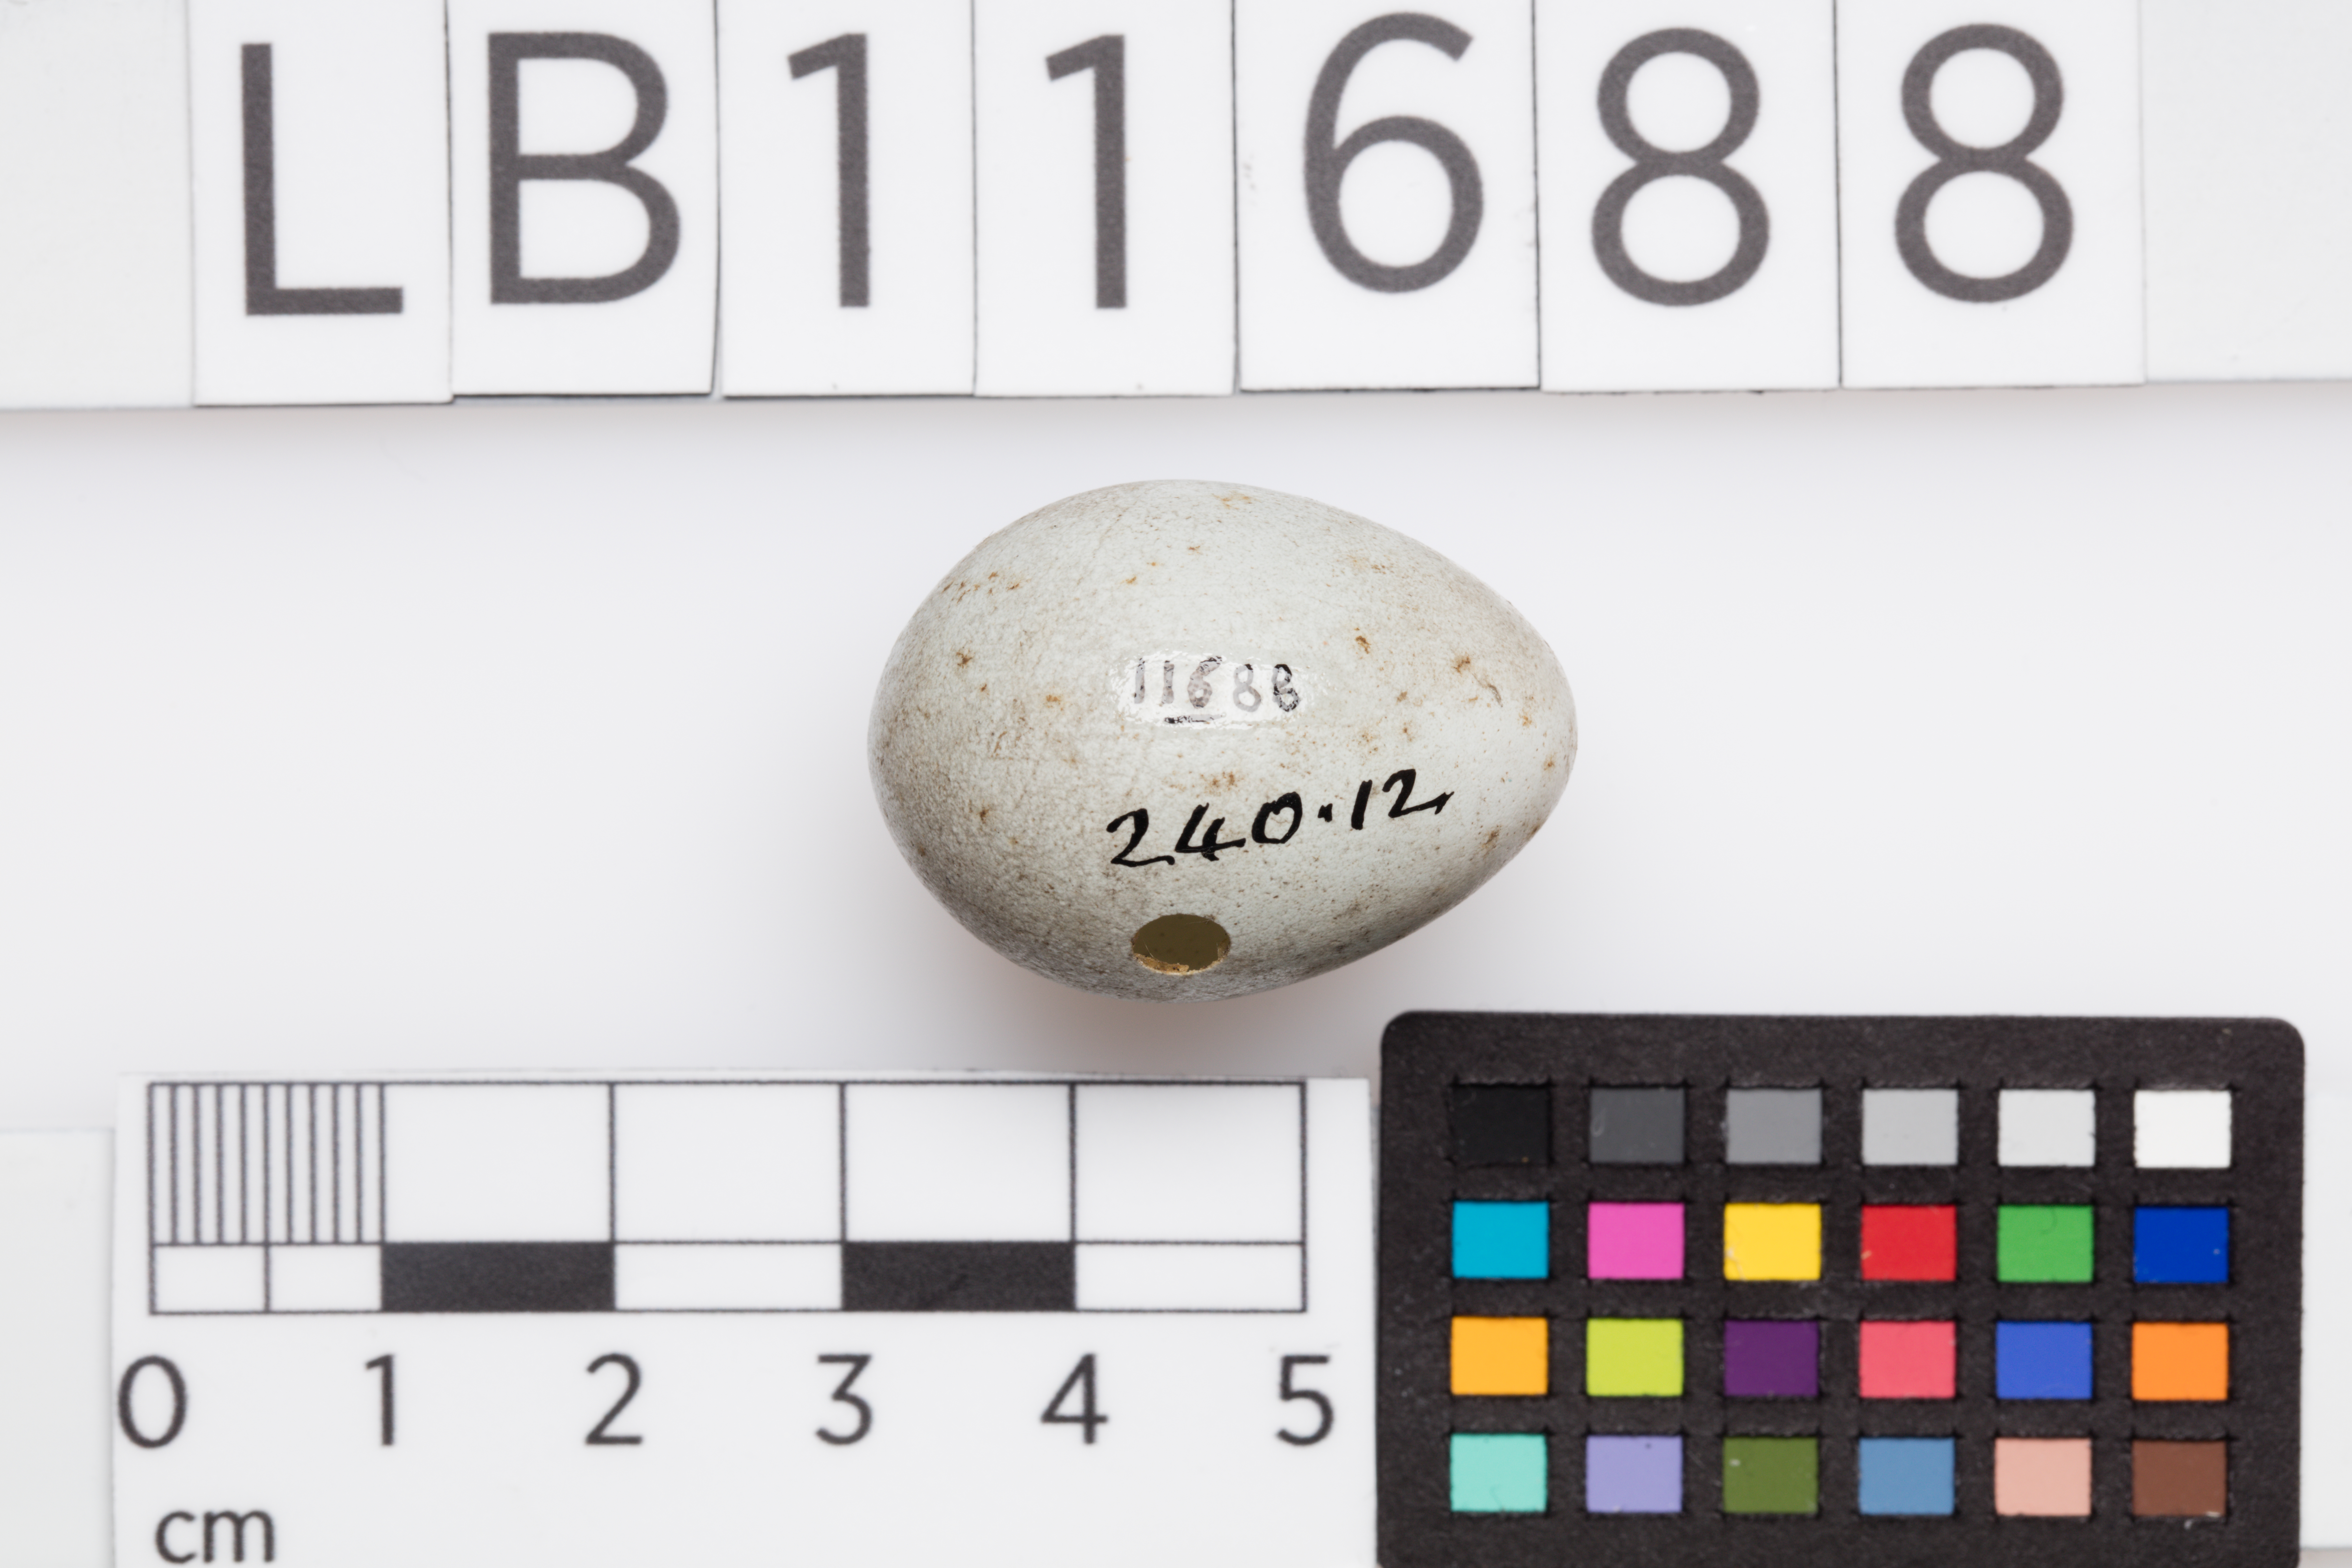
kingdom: Animalia
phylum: Chordata
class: Aves
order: Passeriformes
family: Turdidae
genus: Turdus
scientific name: Turdus merula
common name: Common blackbird
